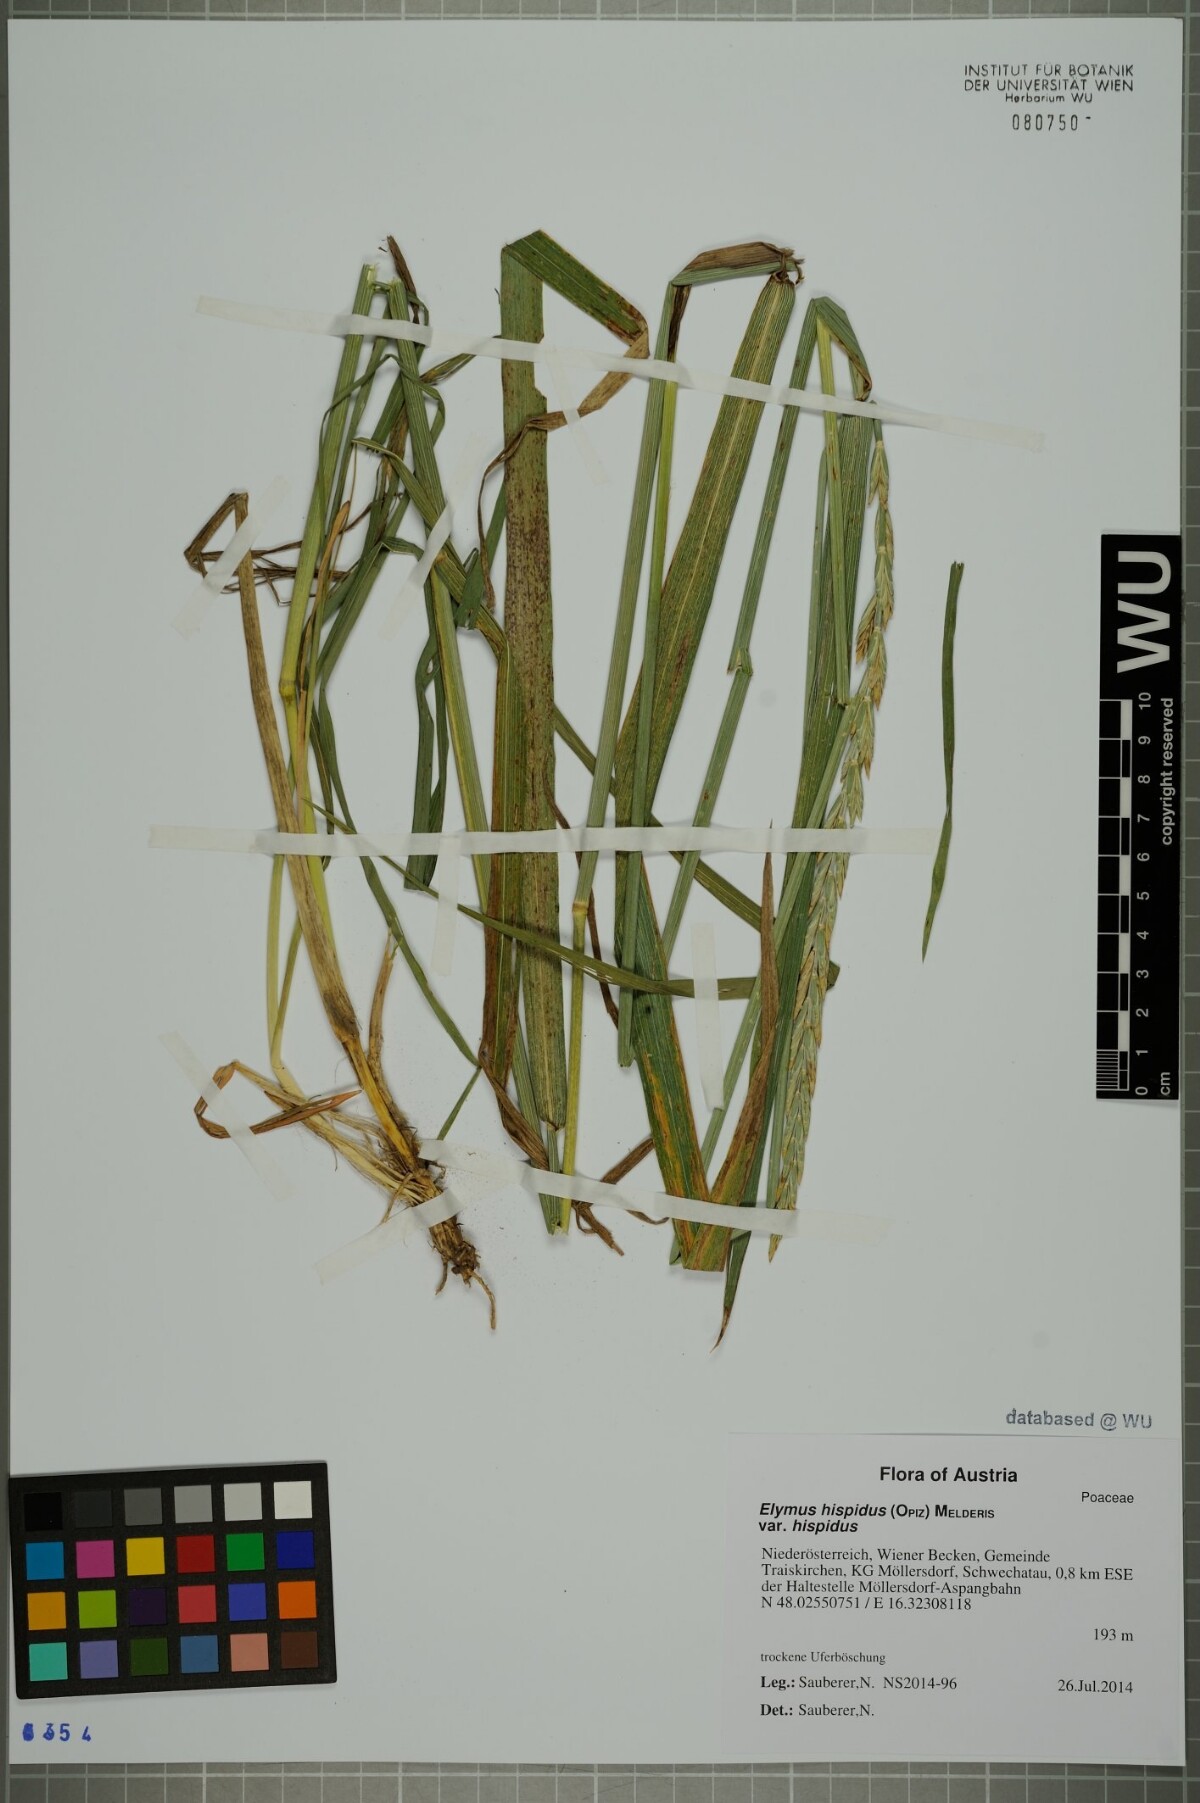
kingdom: Plantae
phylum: Tracheophyta
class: Liliopsida
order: Poales
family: Poaceae
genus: Thinopyrum
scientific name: Thinopyrum intermedium
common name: Intermediate wheatgrass
